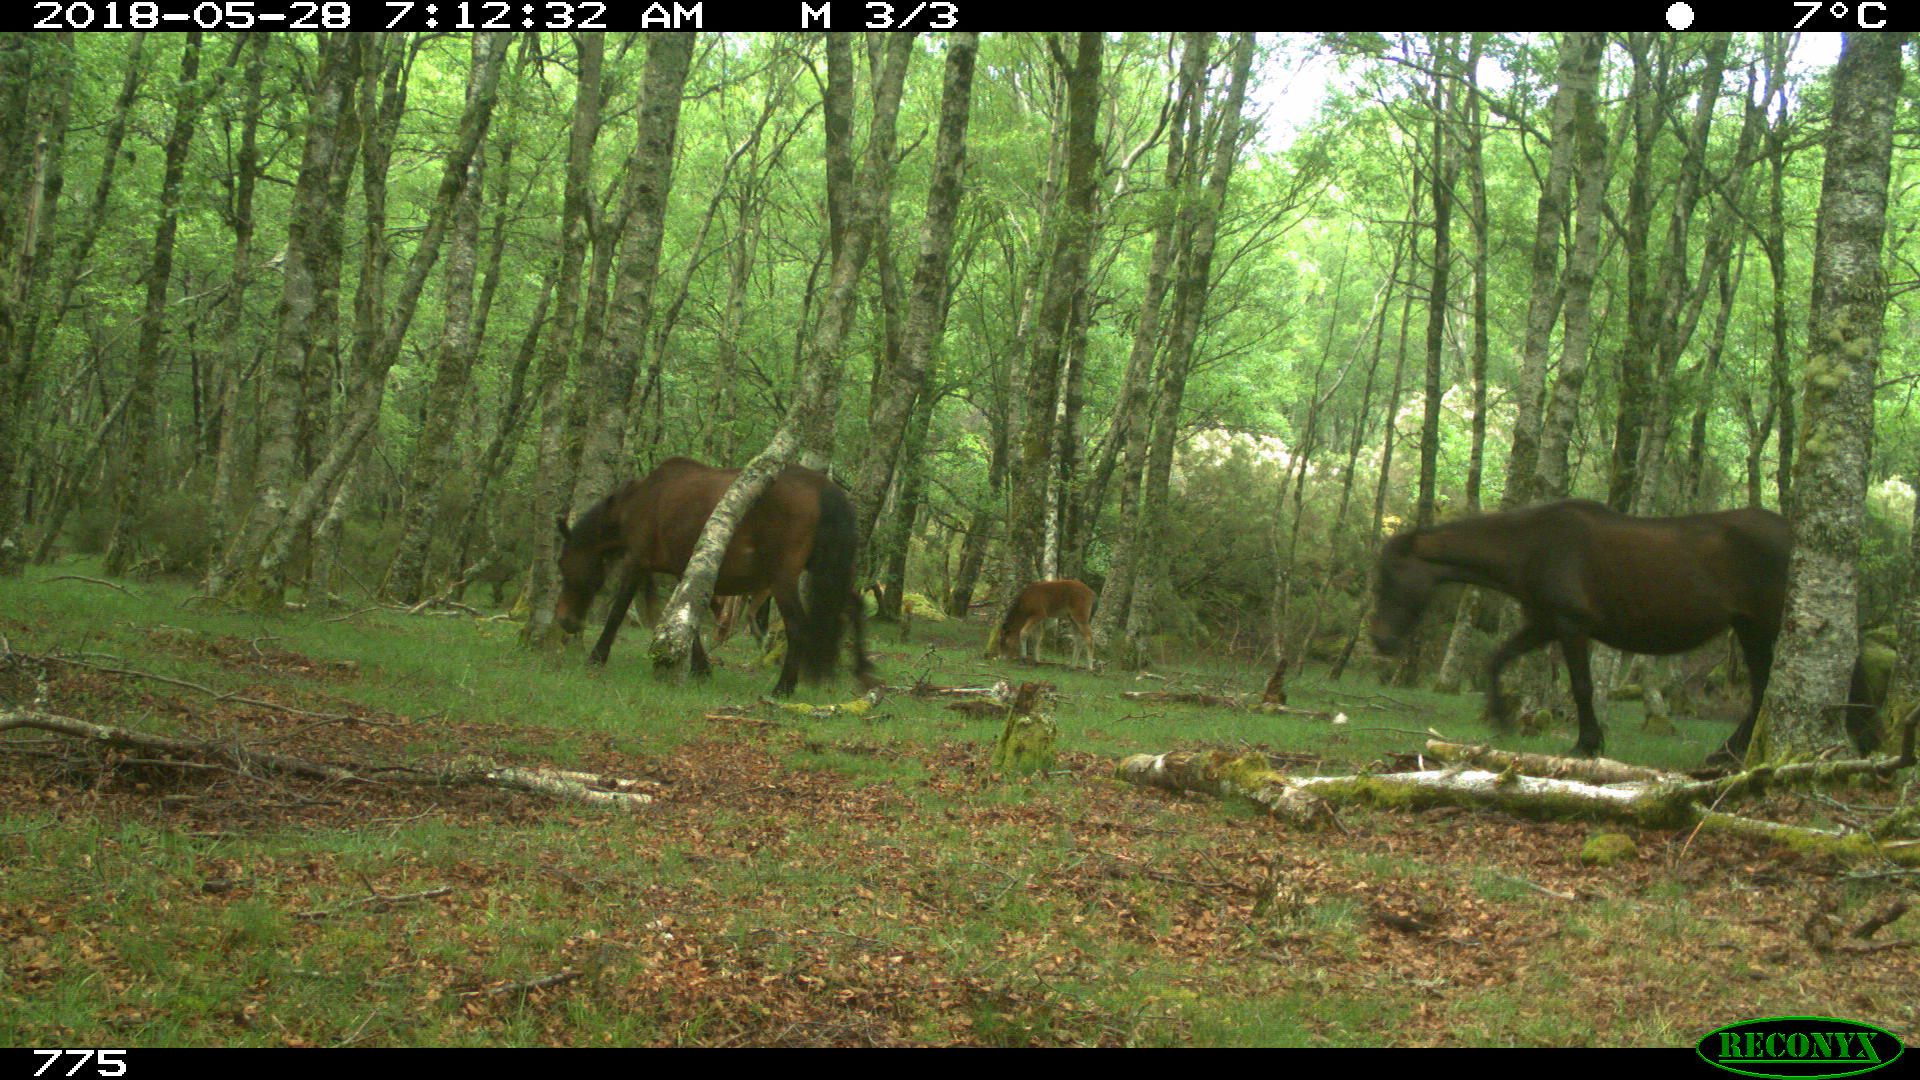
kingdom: Animalia
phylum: Chordata
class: Mammalia
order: Perissodactyla
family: Equidae
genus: Equus
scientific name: Equus caballus
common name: Horse
